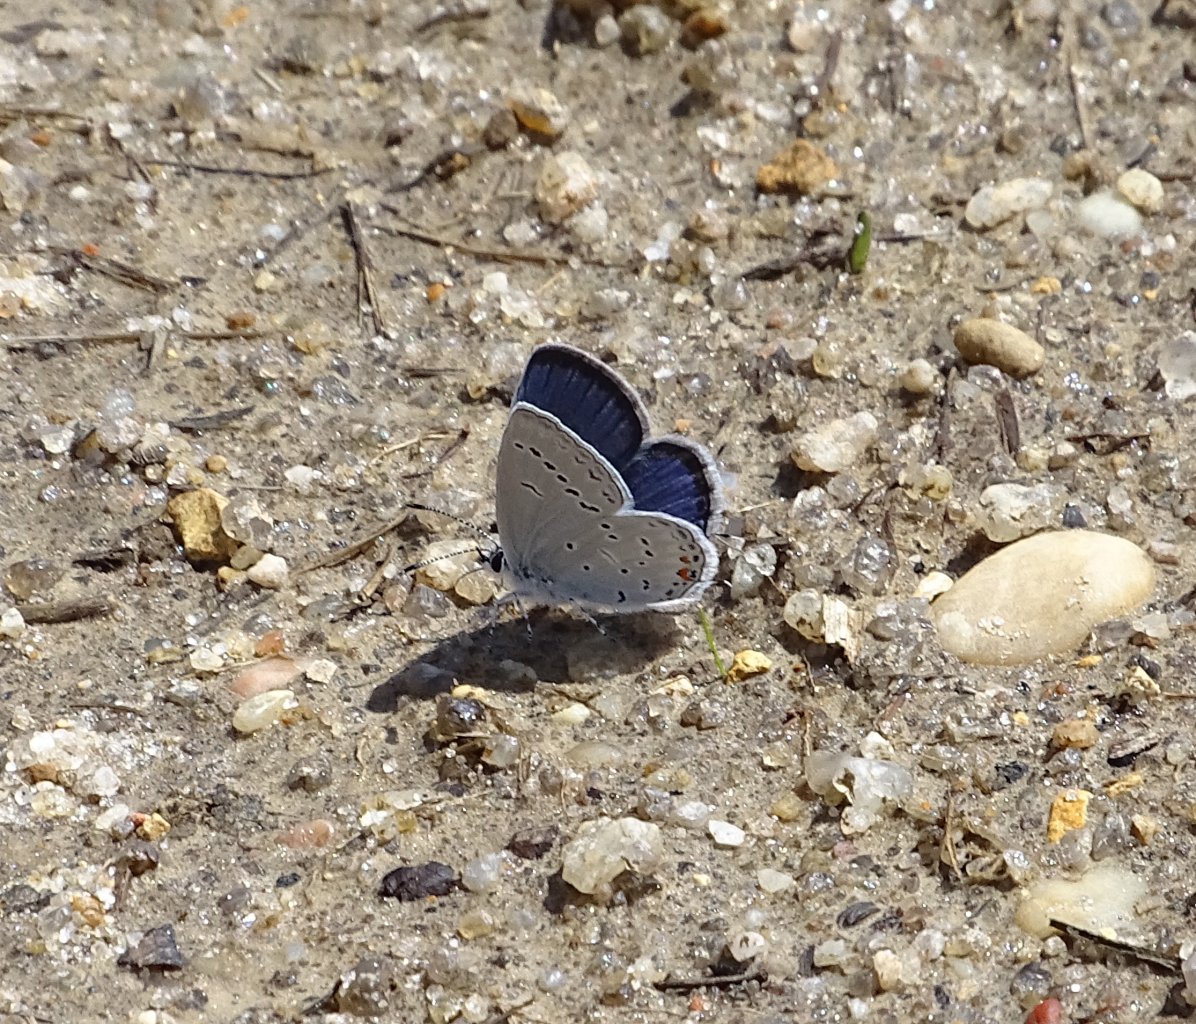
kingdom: Animalia
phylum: Arthropoda
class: Insecta
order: Lepidoptera
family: Lycaenidae
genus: Elkalyce
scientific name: Elkalyce comyntas
